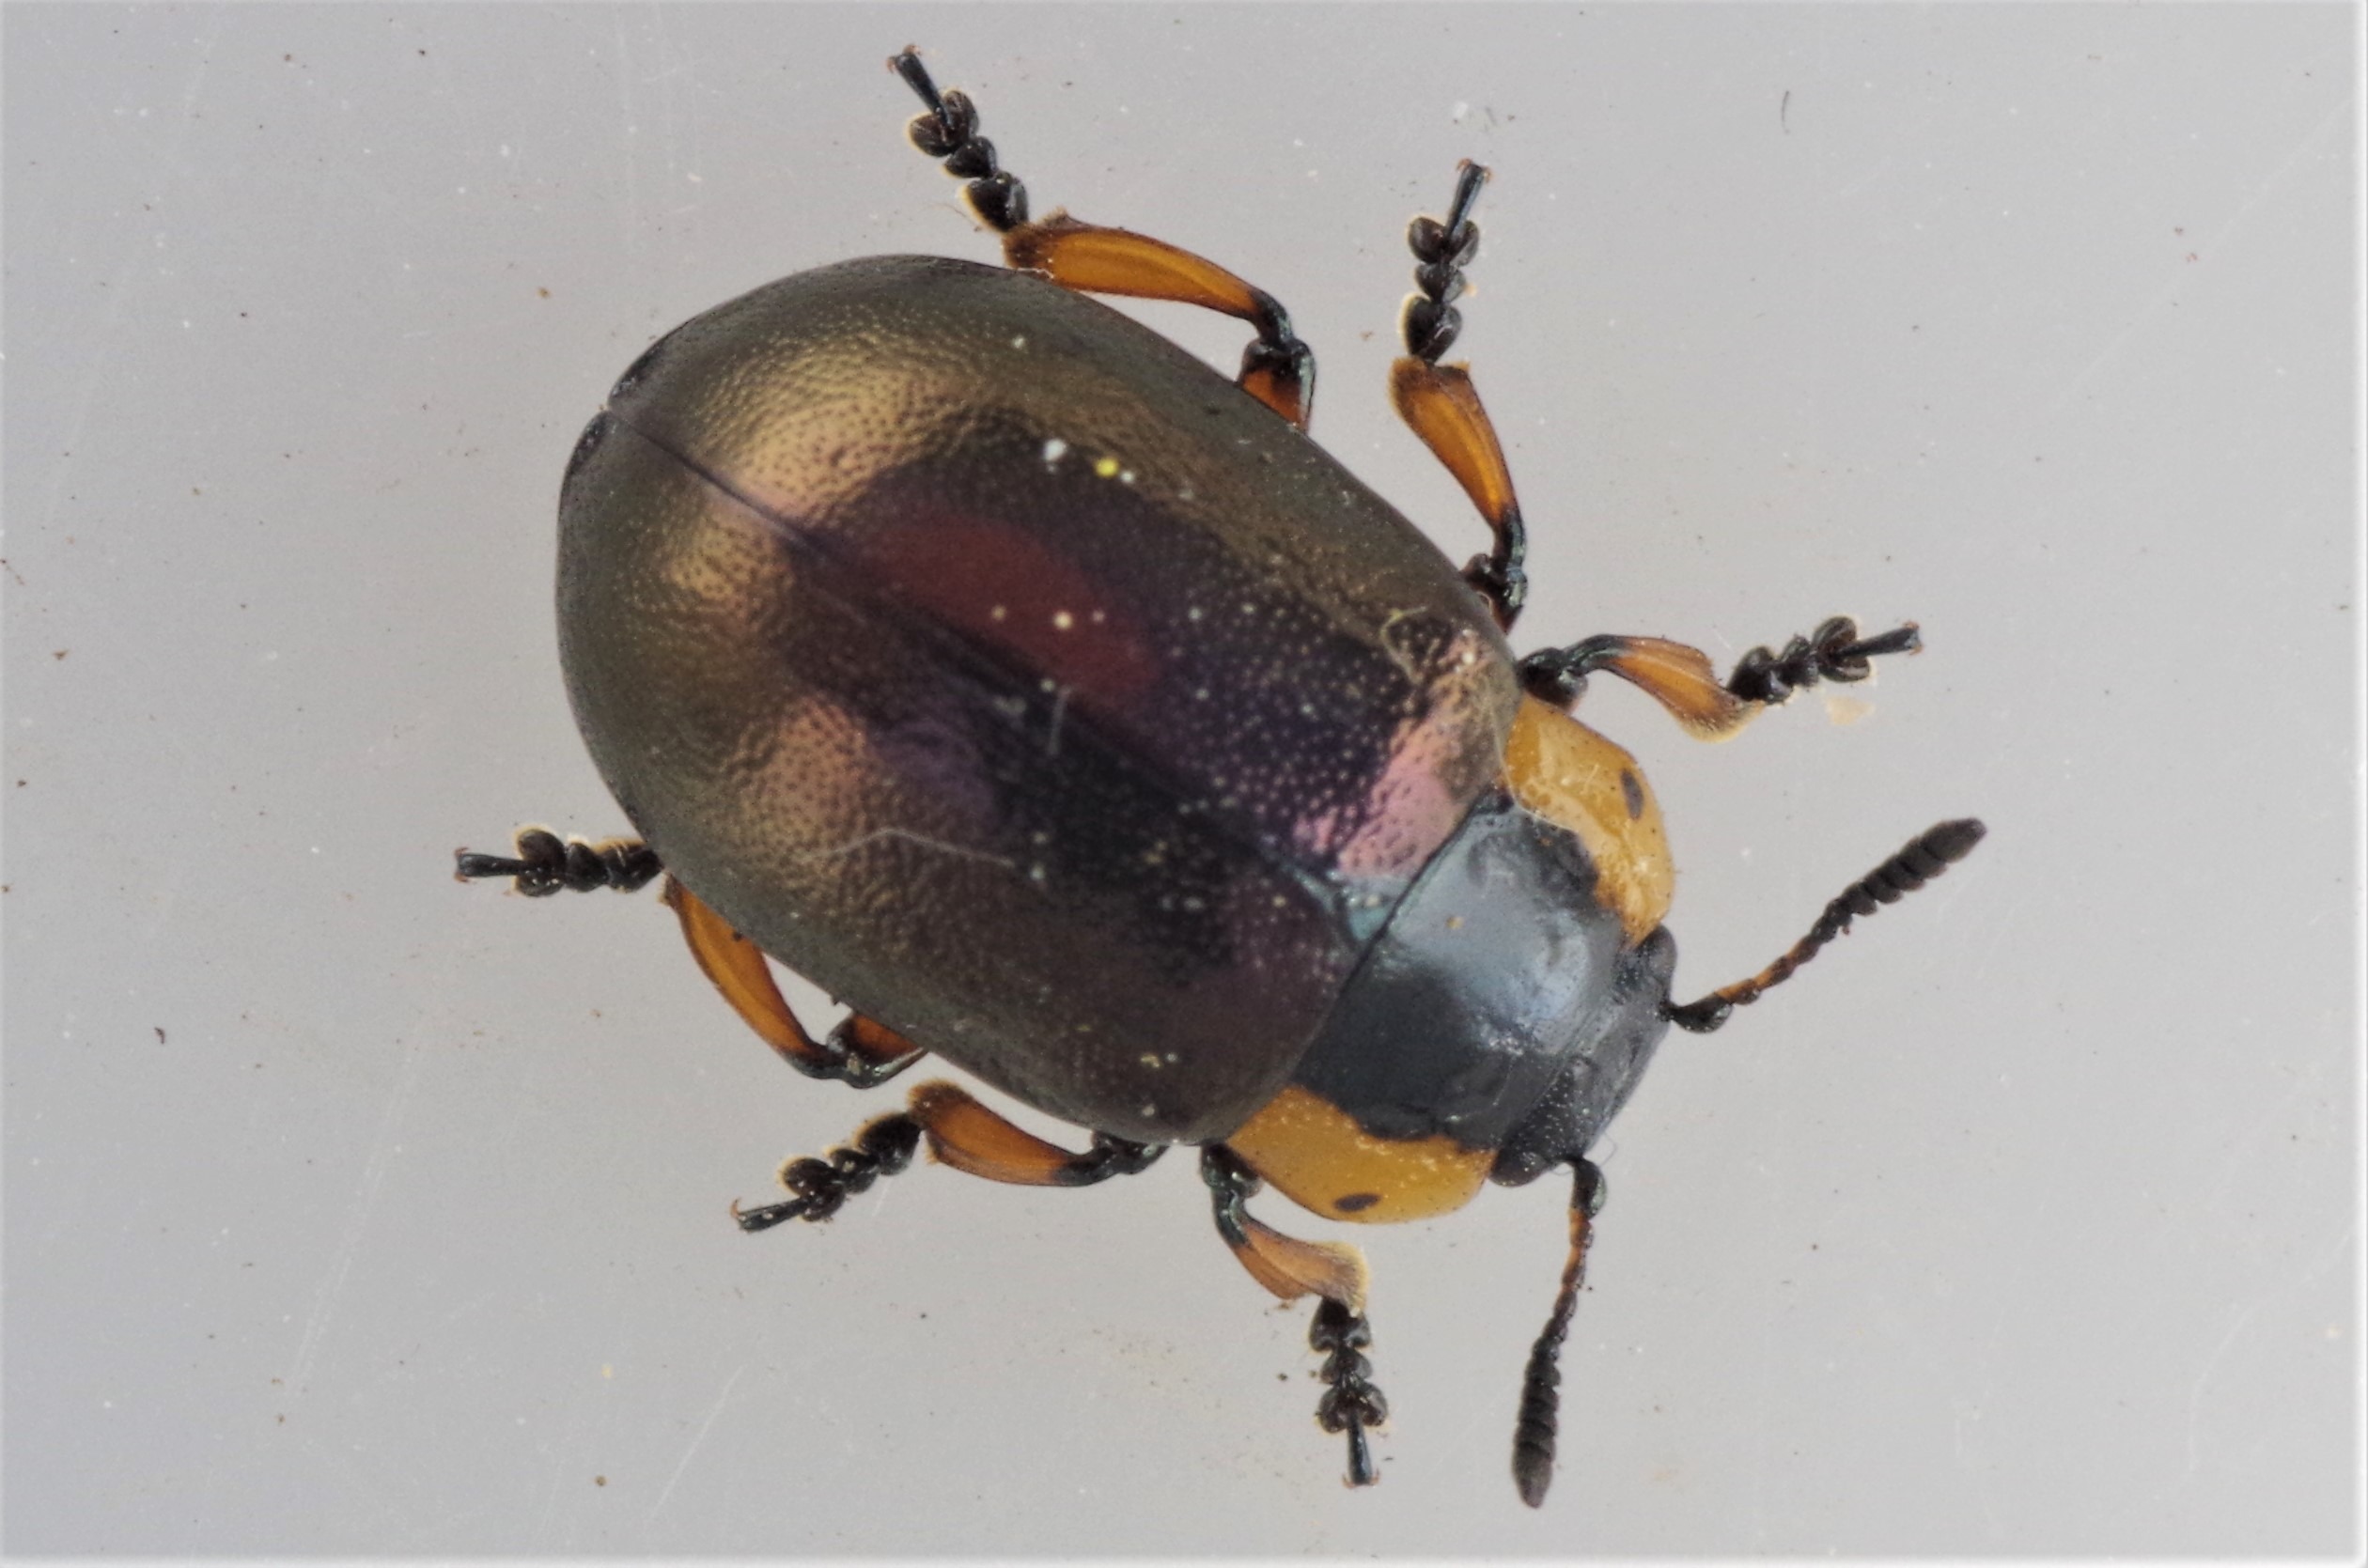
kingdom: Animalia
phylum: Arthropoda
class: Insecta
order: Coleoptera
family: Chrysomelidae
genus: Chrysomela
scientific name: Chrysomela collaris
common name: Klitbladbille
